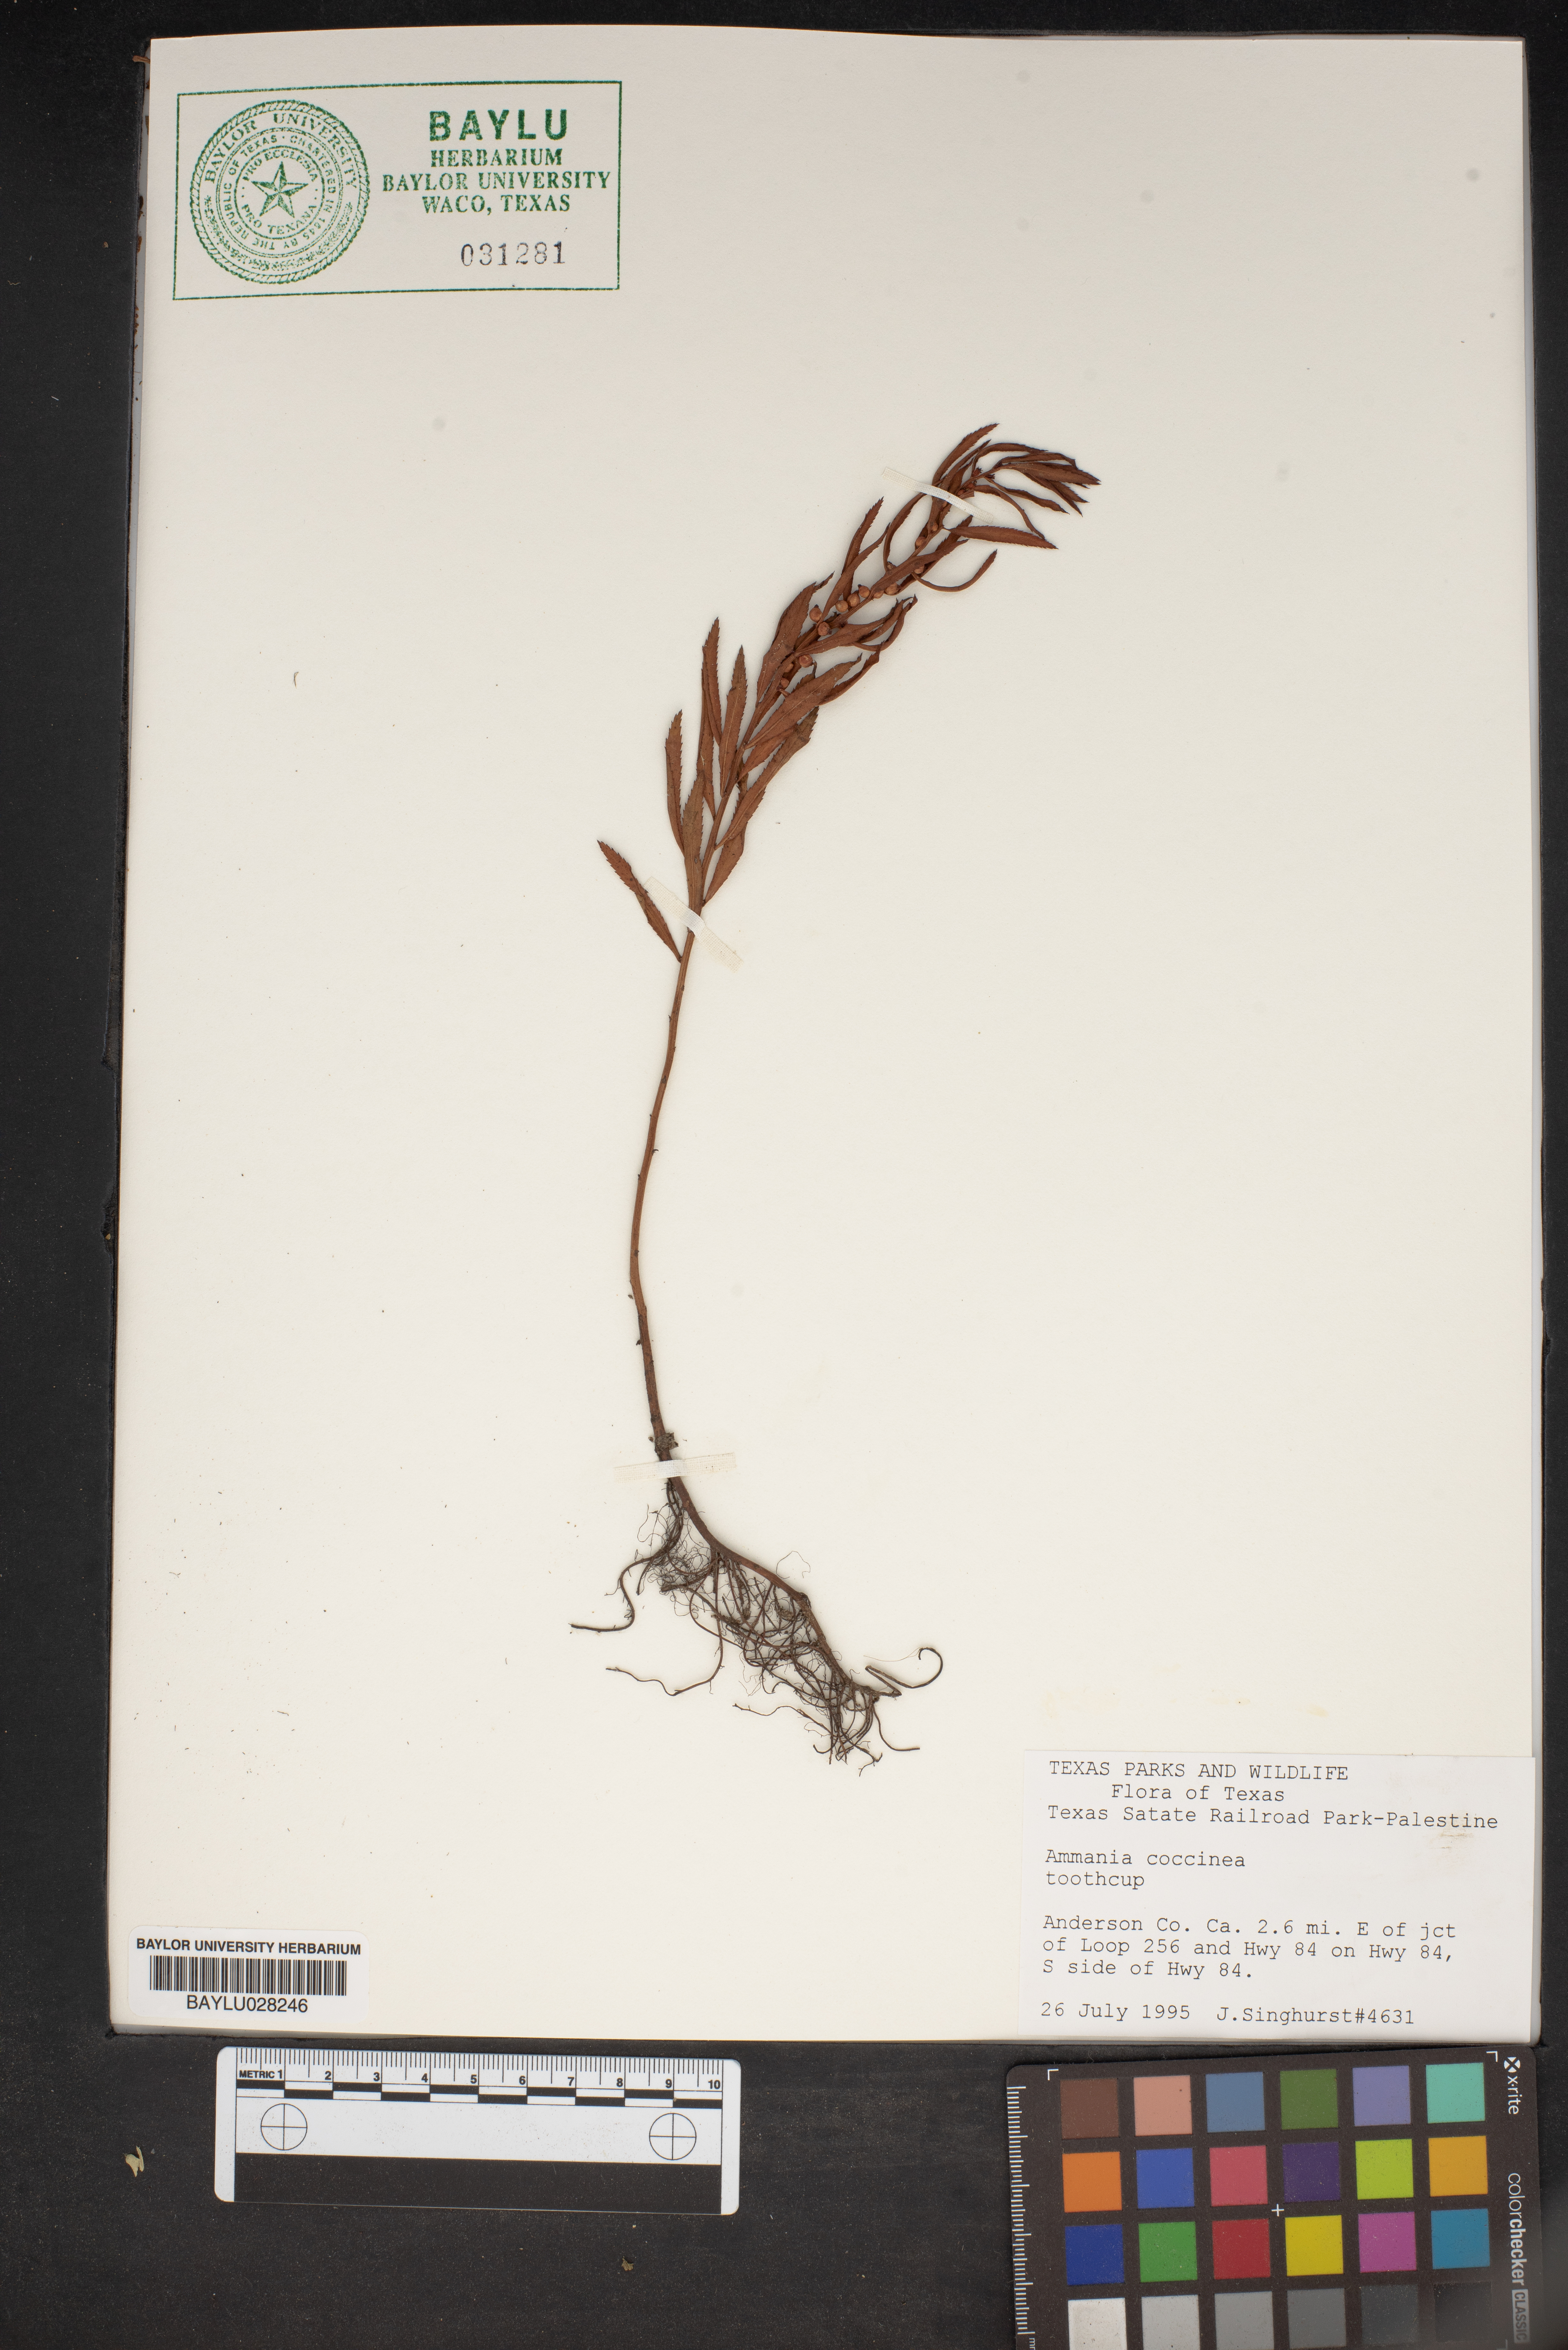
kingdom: Plantae
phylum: Tracheophyta
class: Magnoliopsida
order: Myrtales
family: Lythraceae
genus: Ammannia
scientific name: Ammannia coccinea
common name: Valley redstem
